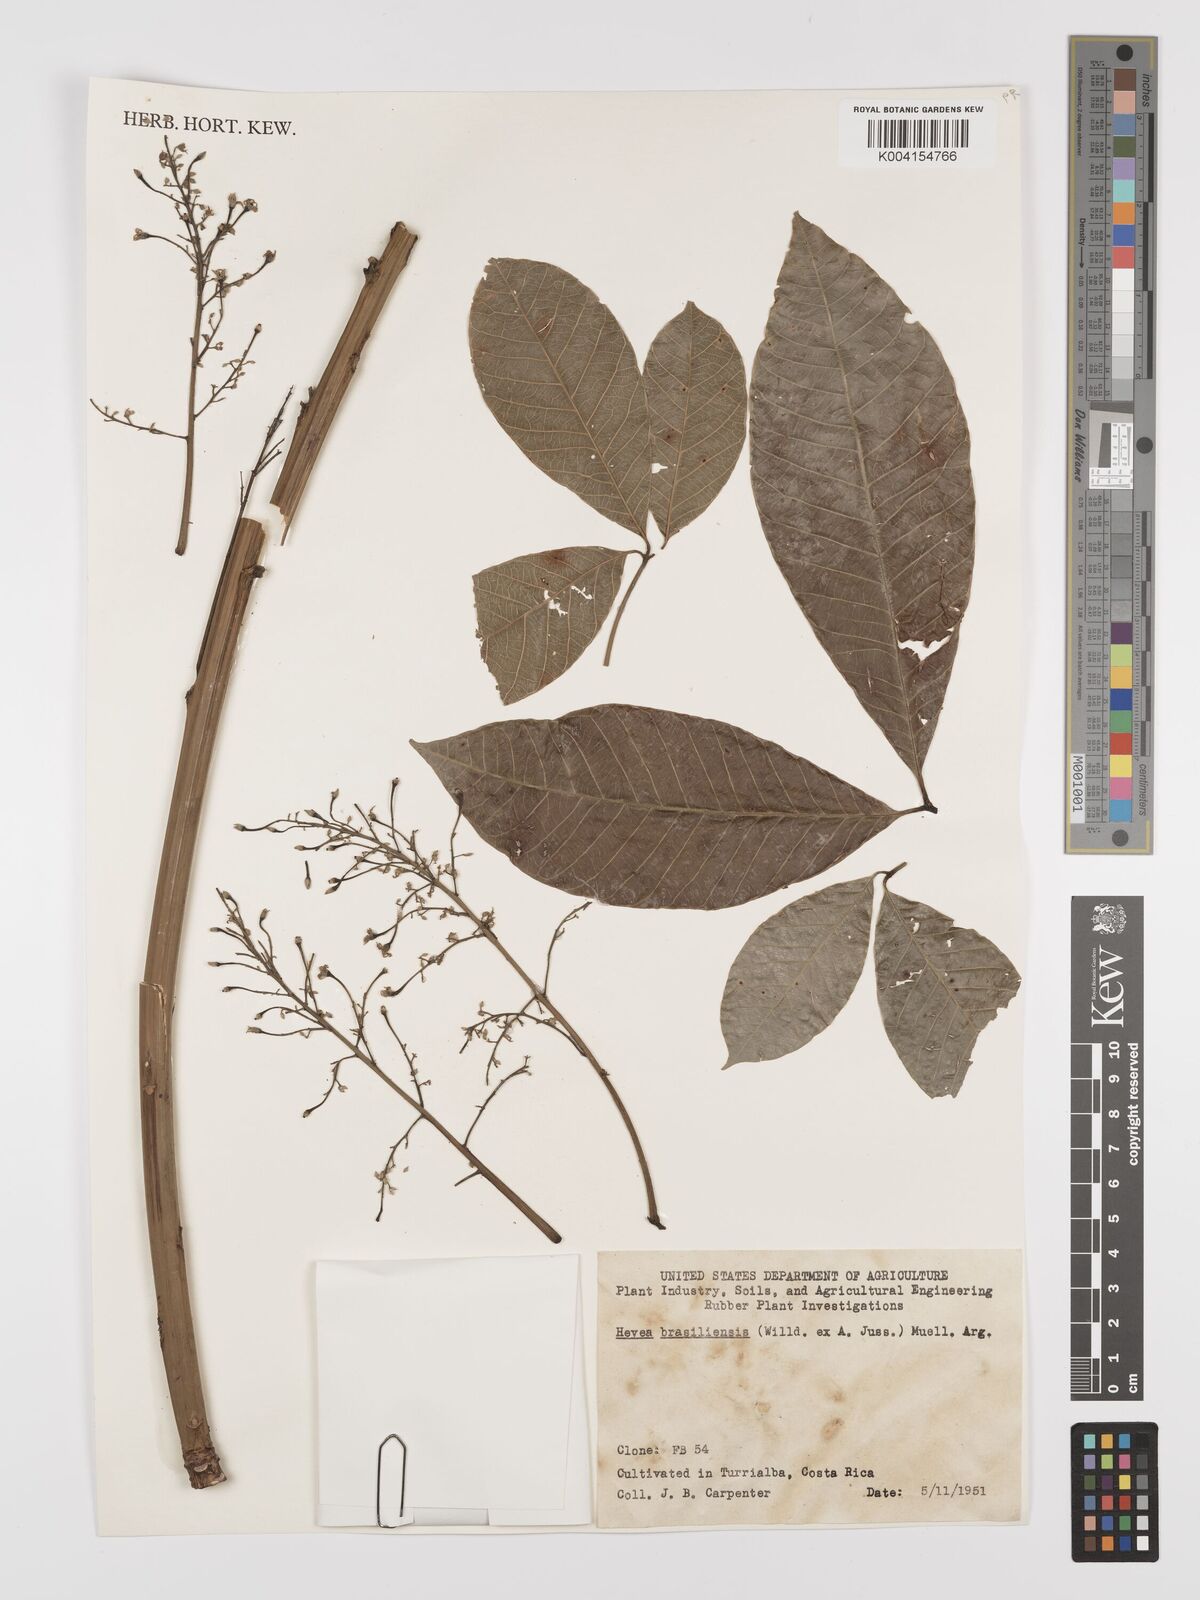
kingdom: Plantae
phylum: Tracheophyta
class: Magnoliopsida
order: Malpighiales
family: Euphorbiaceae
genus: Hevea
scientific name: Hevea brasiliensis
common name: Natural rubber
